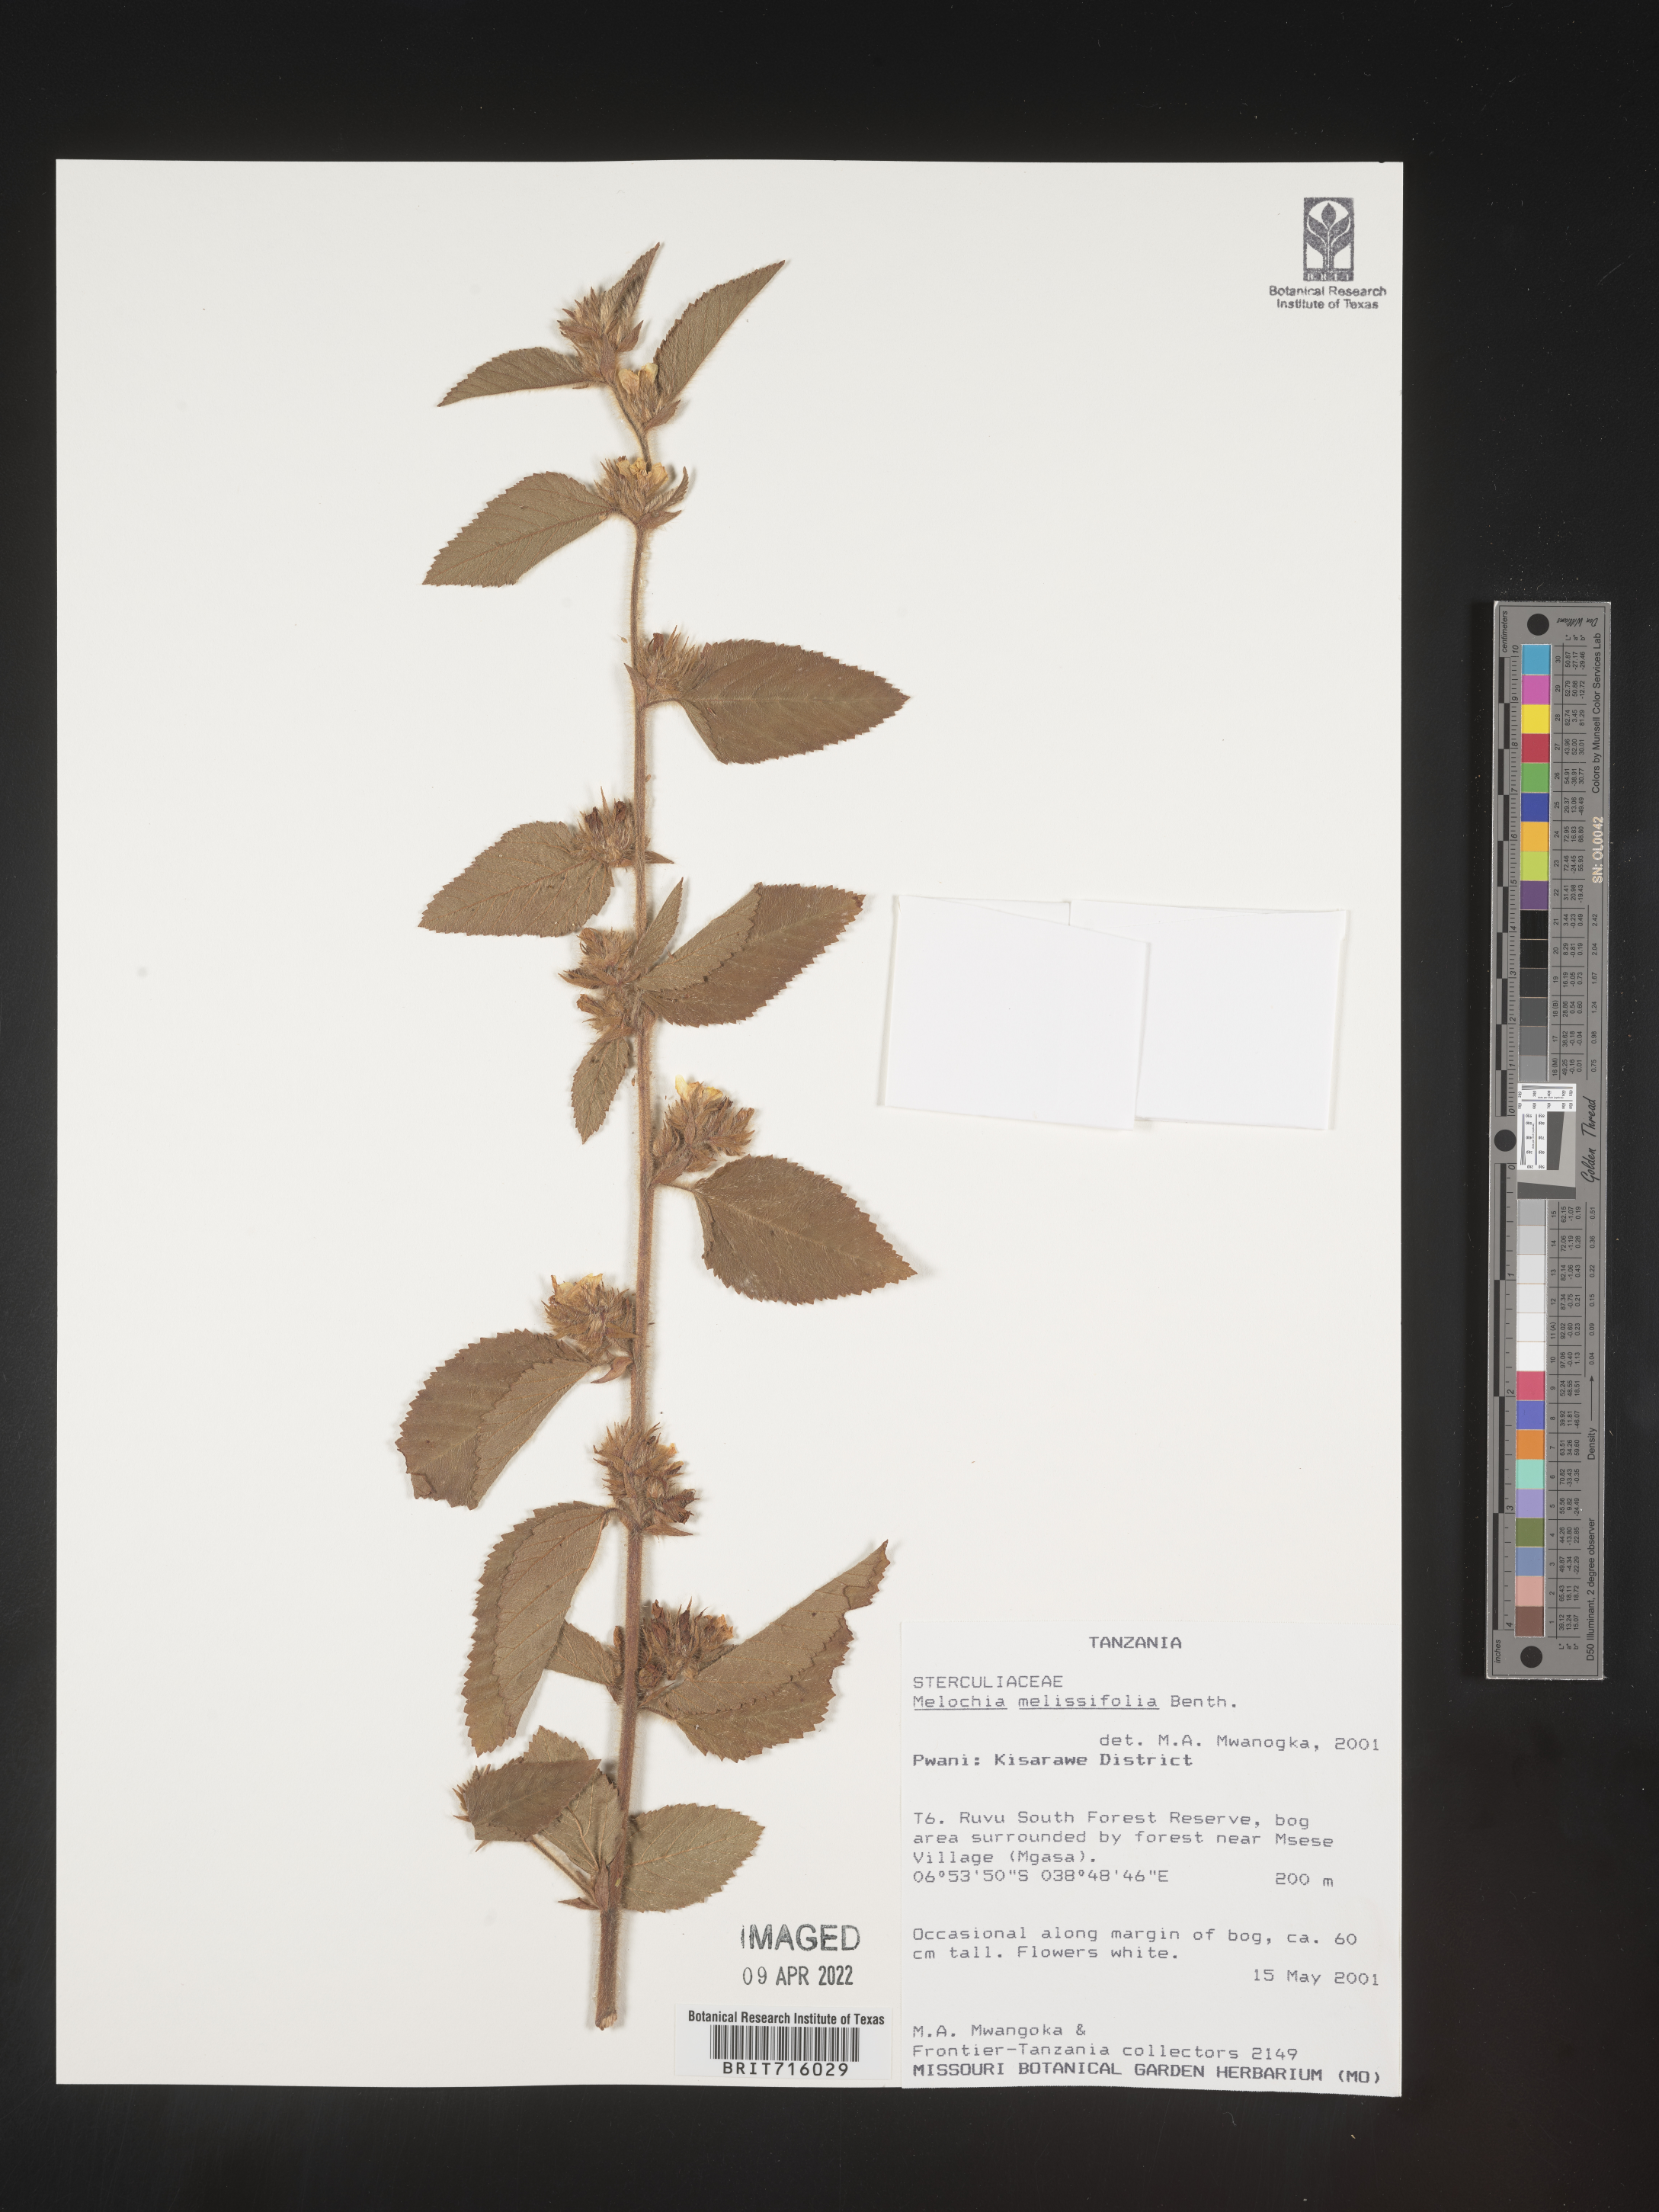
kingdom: Plantae
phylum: Tracheophyta
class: Magnoliopsida
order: Malvales
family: Malvaceae
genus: Melochia
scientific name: Melochia
